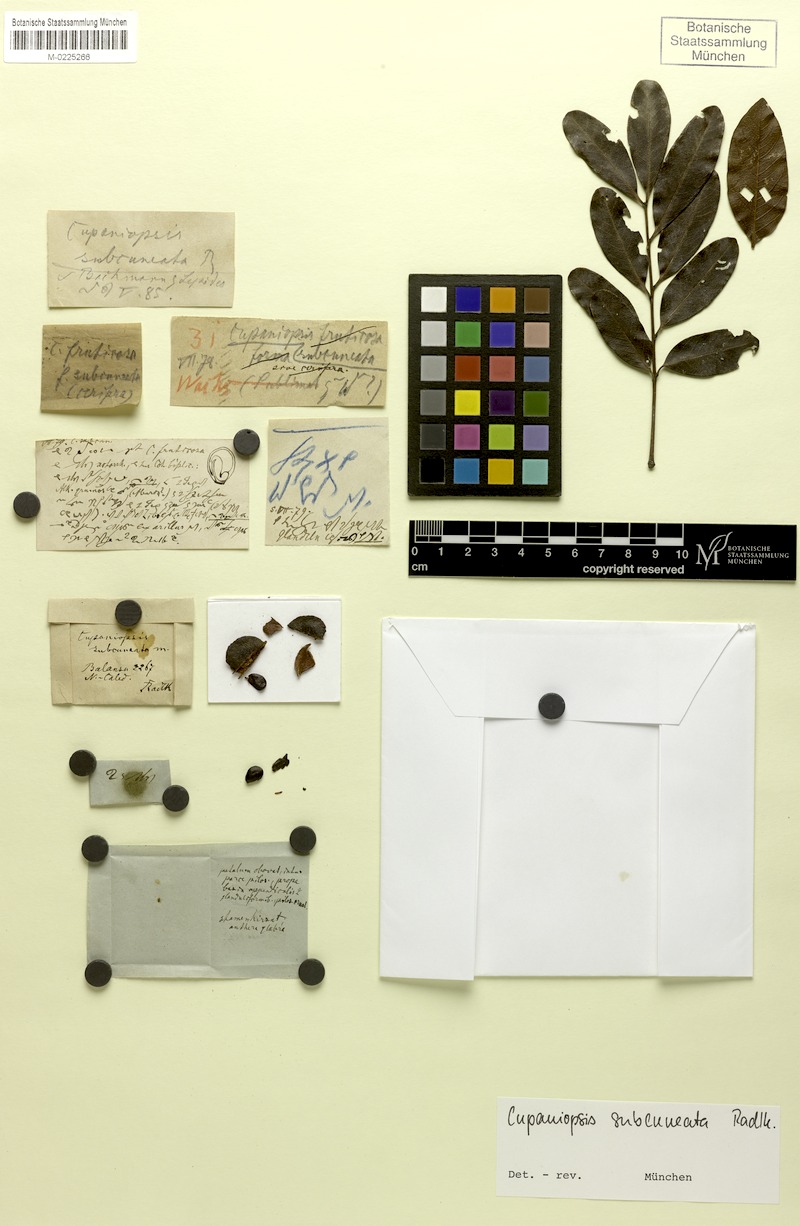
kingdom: Plantae
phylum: Tracheophyta
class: Magnoliopsida
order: Sapindales
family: Sapindaceae
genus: Lepidocupania
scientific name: Lepidocupania fruticosa
